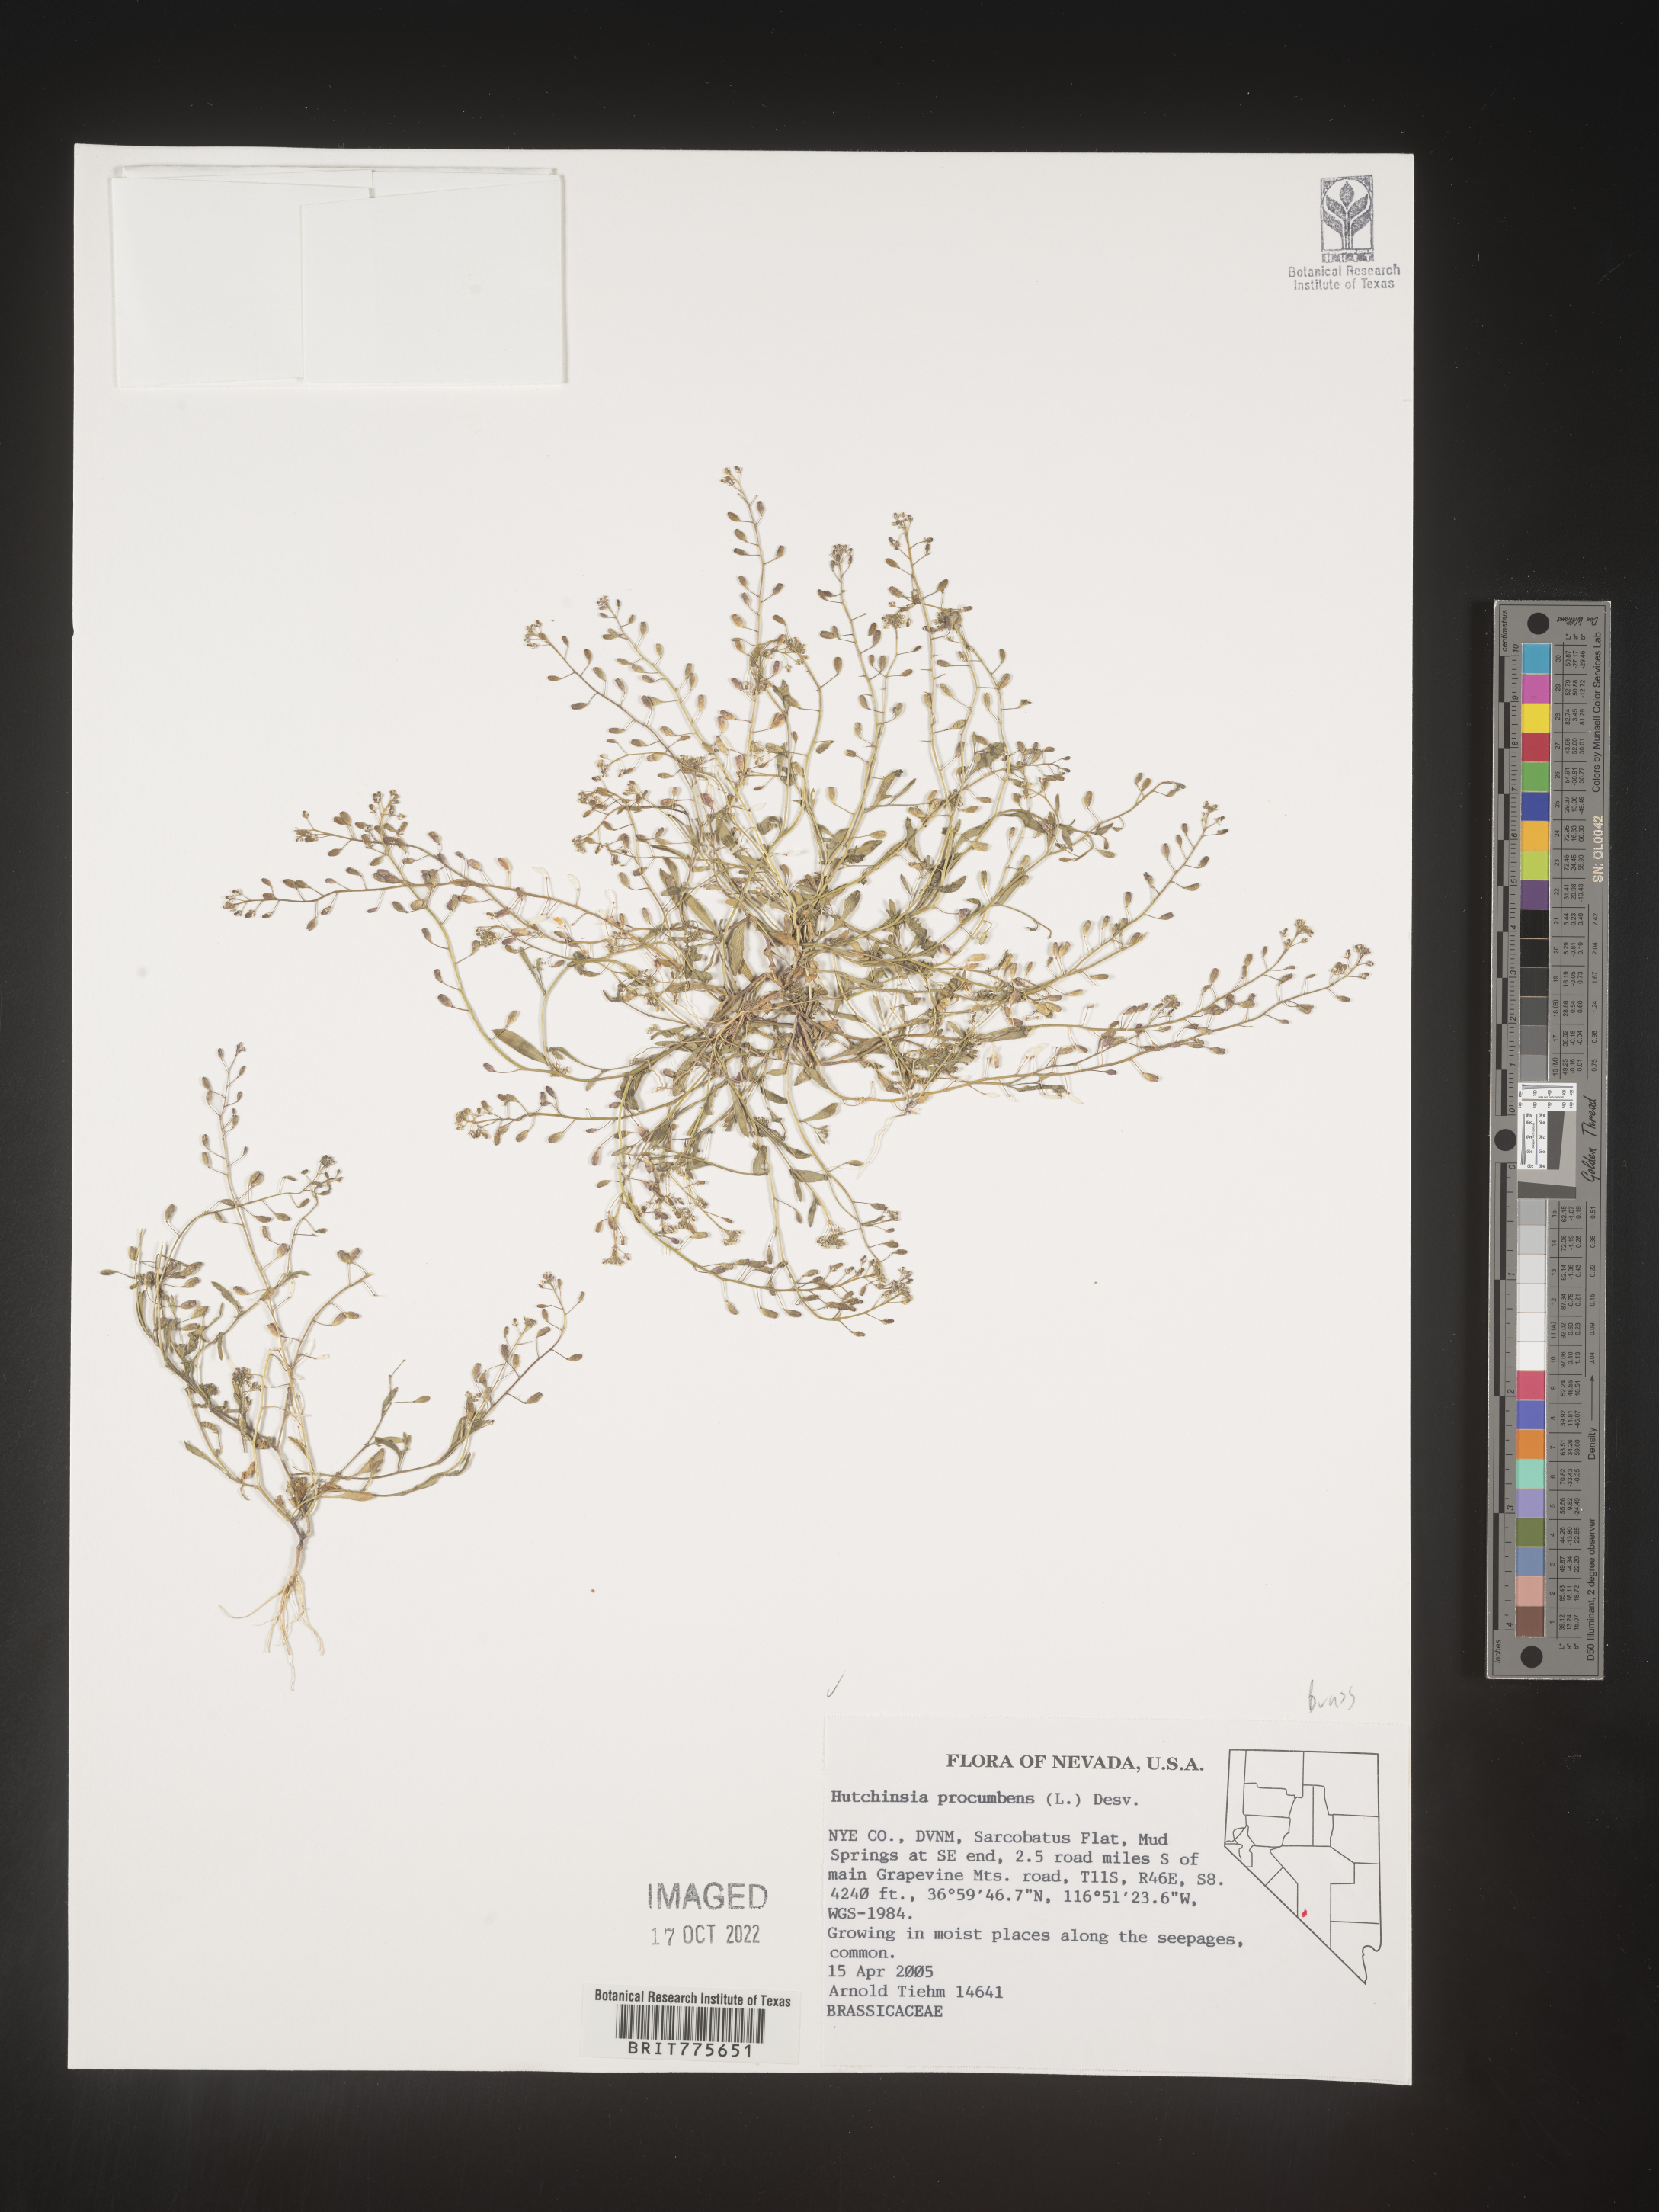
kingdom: Plantae
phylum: Rhodophyta
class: Florideophyceae
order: Ceramiales
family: Rhodomelaceae
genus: Hutchinsia
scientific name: Hutchinsia
